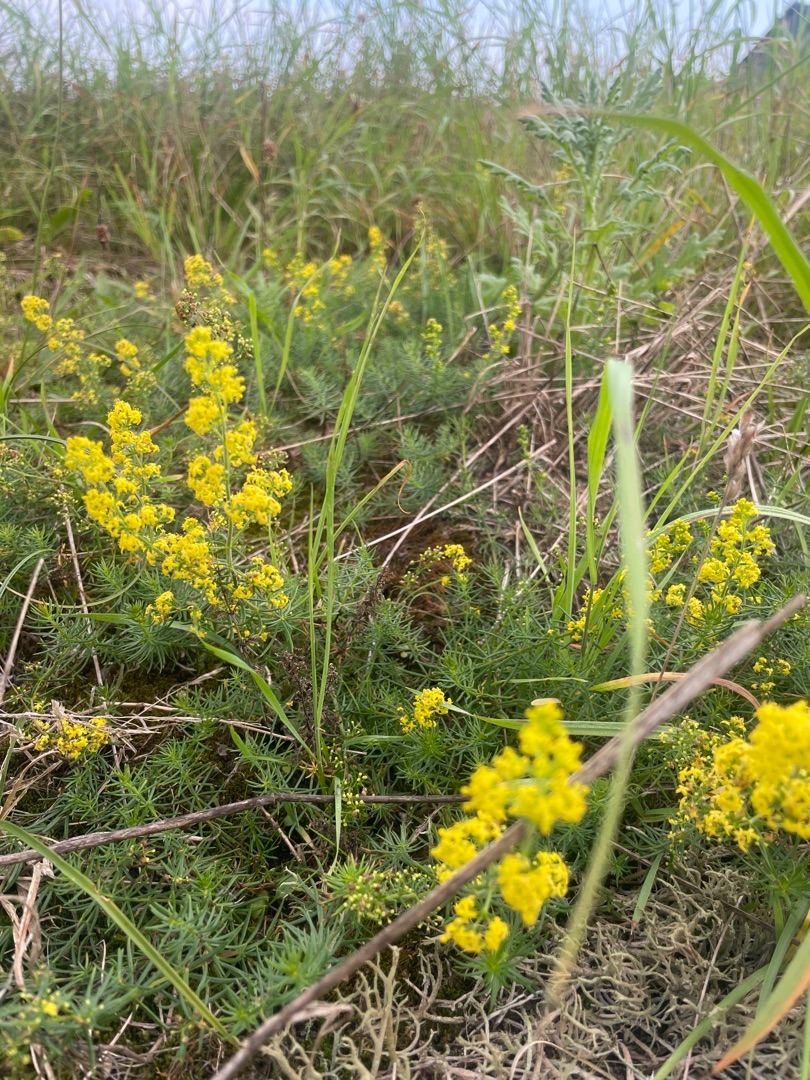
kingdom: Plantae
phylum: Tracheophyta
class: Magnoliopsida
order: Gentianales
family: Rubiaceae
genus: Galium
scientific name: Galium verum
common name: Gul snerre
